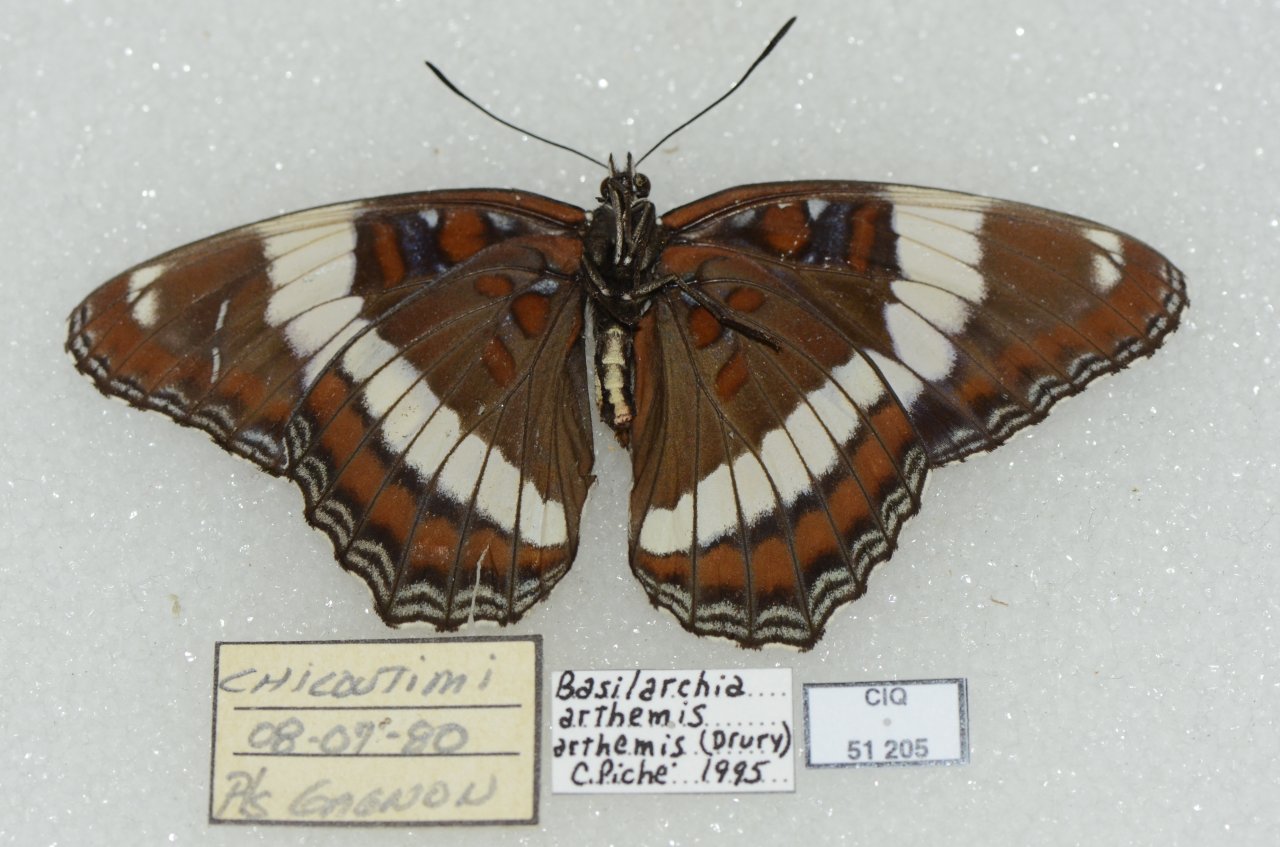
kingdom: Animalia
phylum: Arthropoda
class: Insecta
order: Lepidoptera
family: Nymphalidae
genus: Limenitis
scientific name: Limenitis arthemis
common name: Red-spotted Admiral
